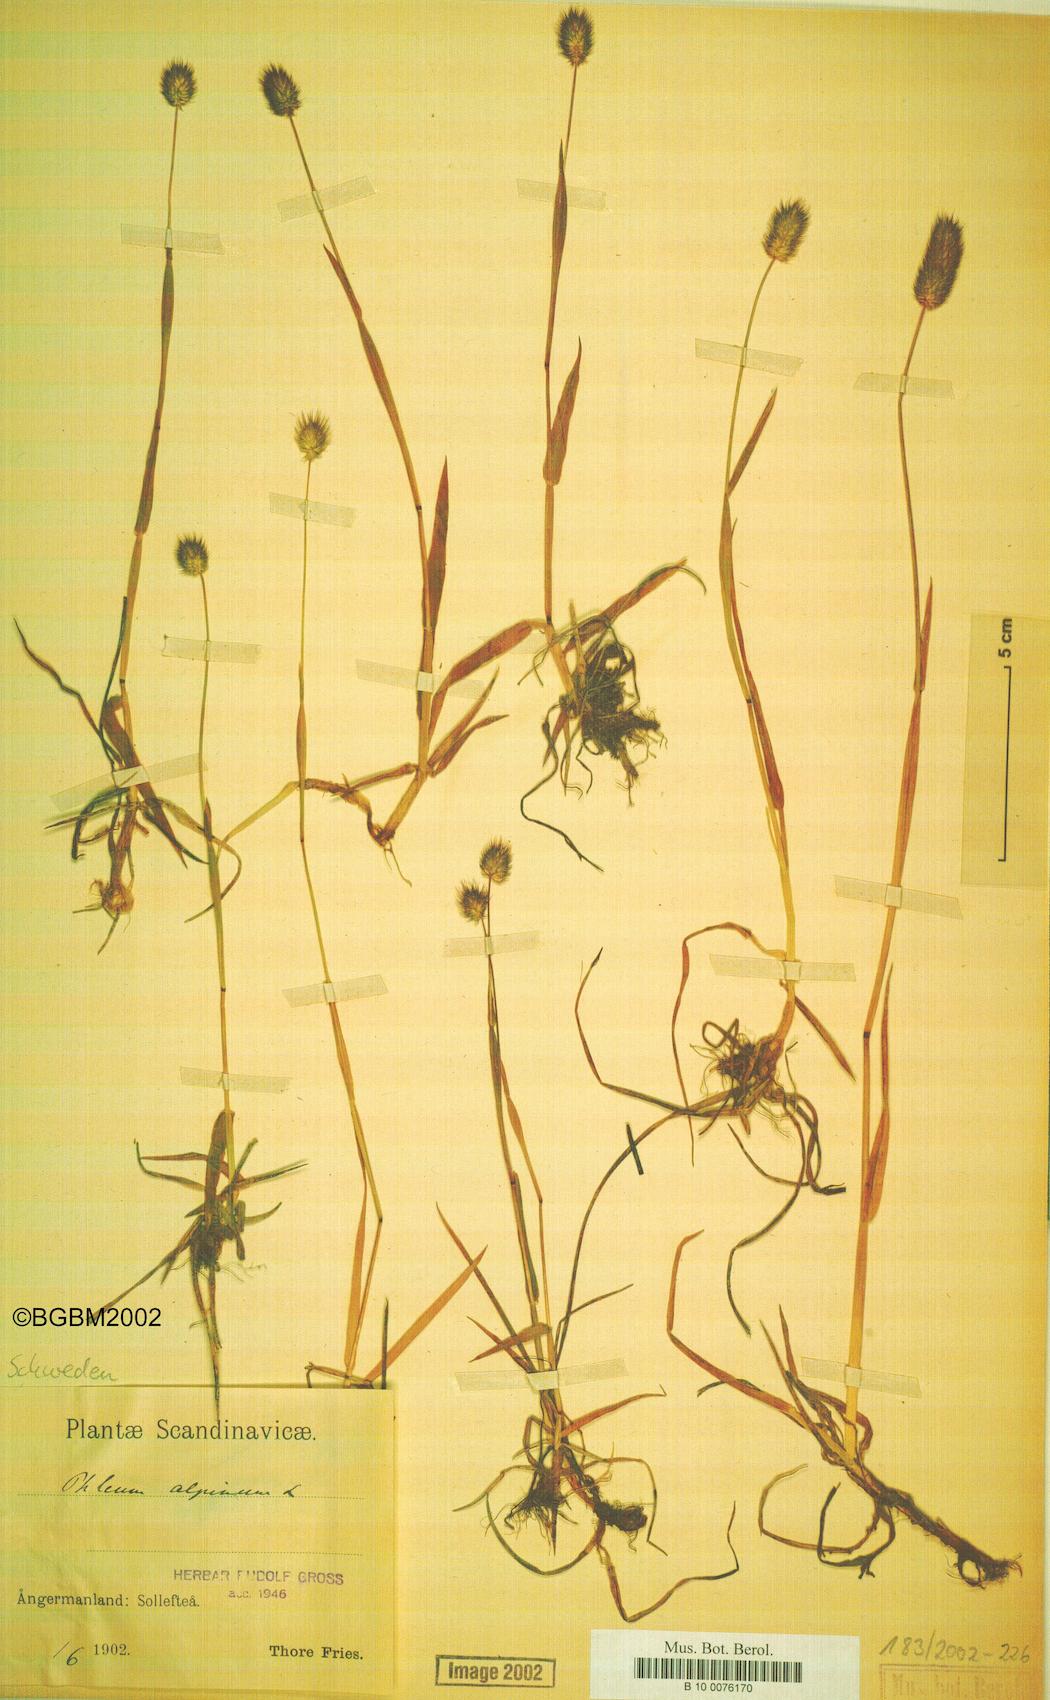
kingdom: Plantae
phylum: Tracheophyta
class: Liliopsida
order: Poales
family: Poaceae
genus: Phleum
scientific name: Phleum alpinum
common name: Alpine cat's-tail
